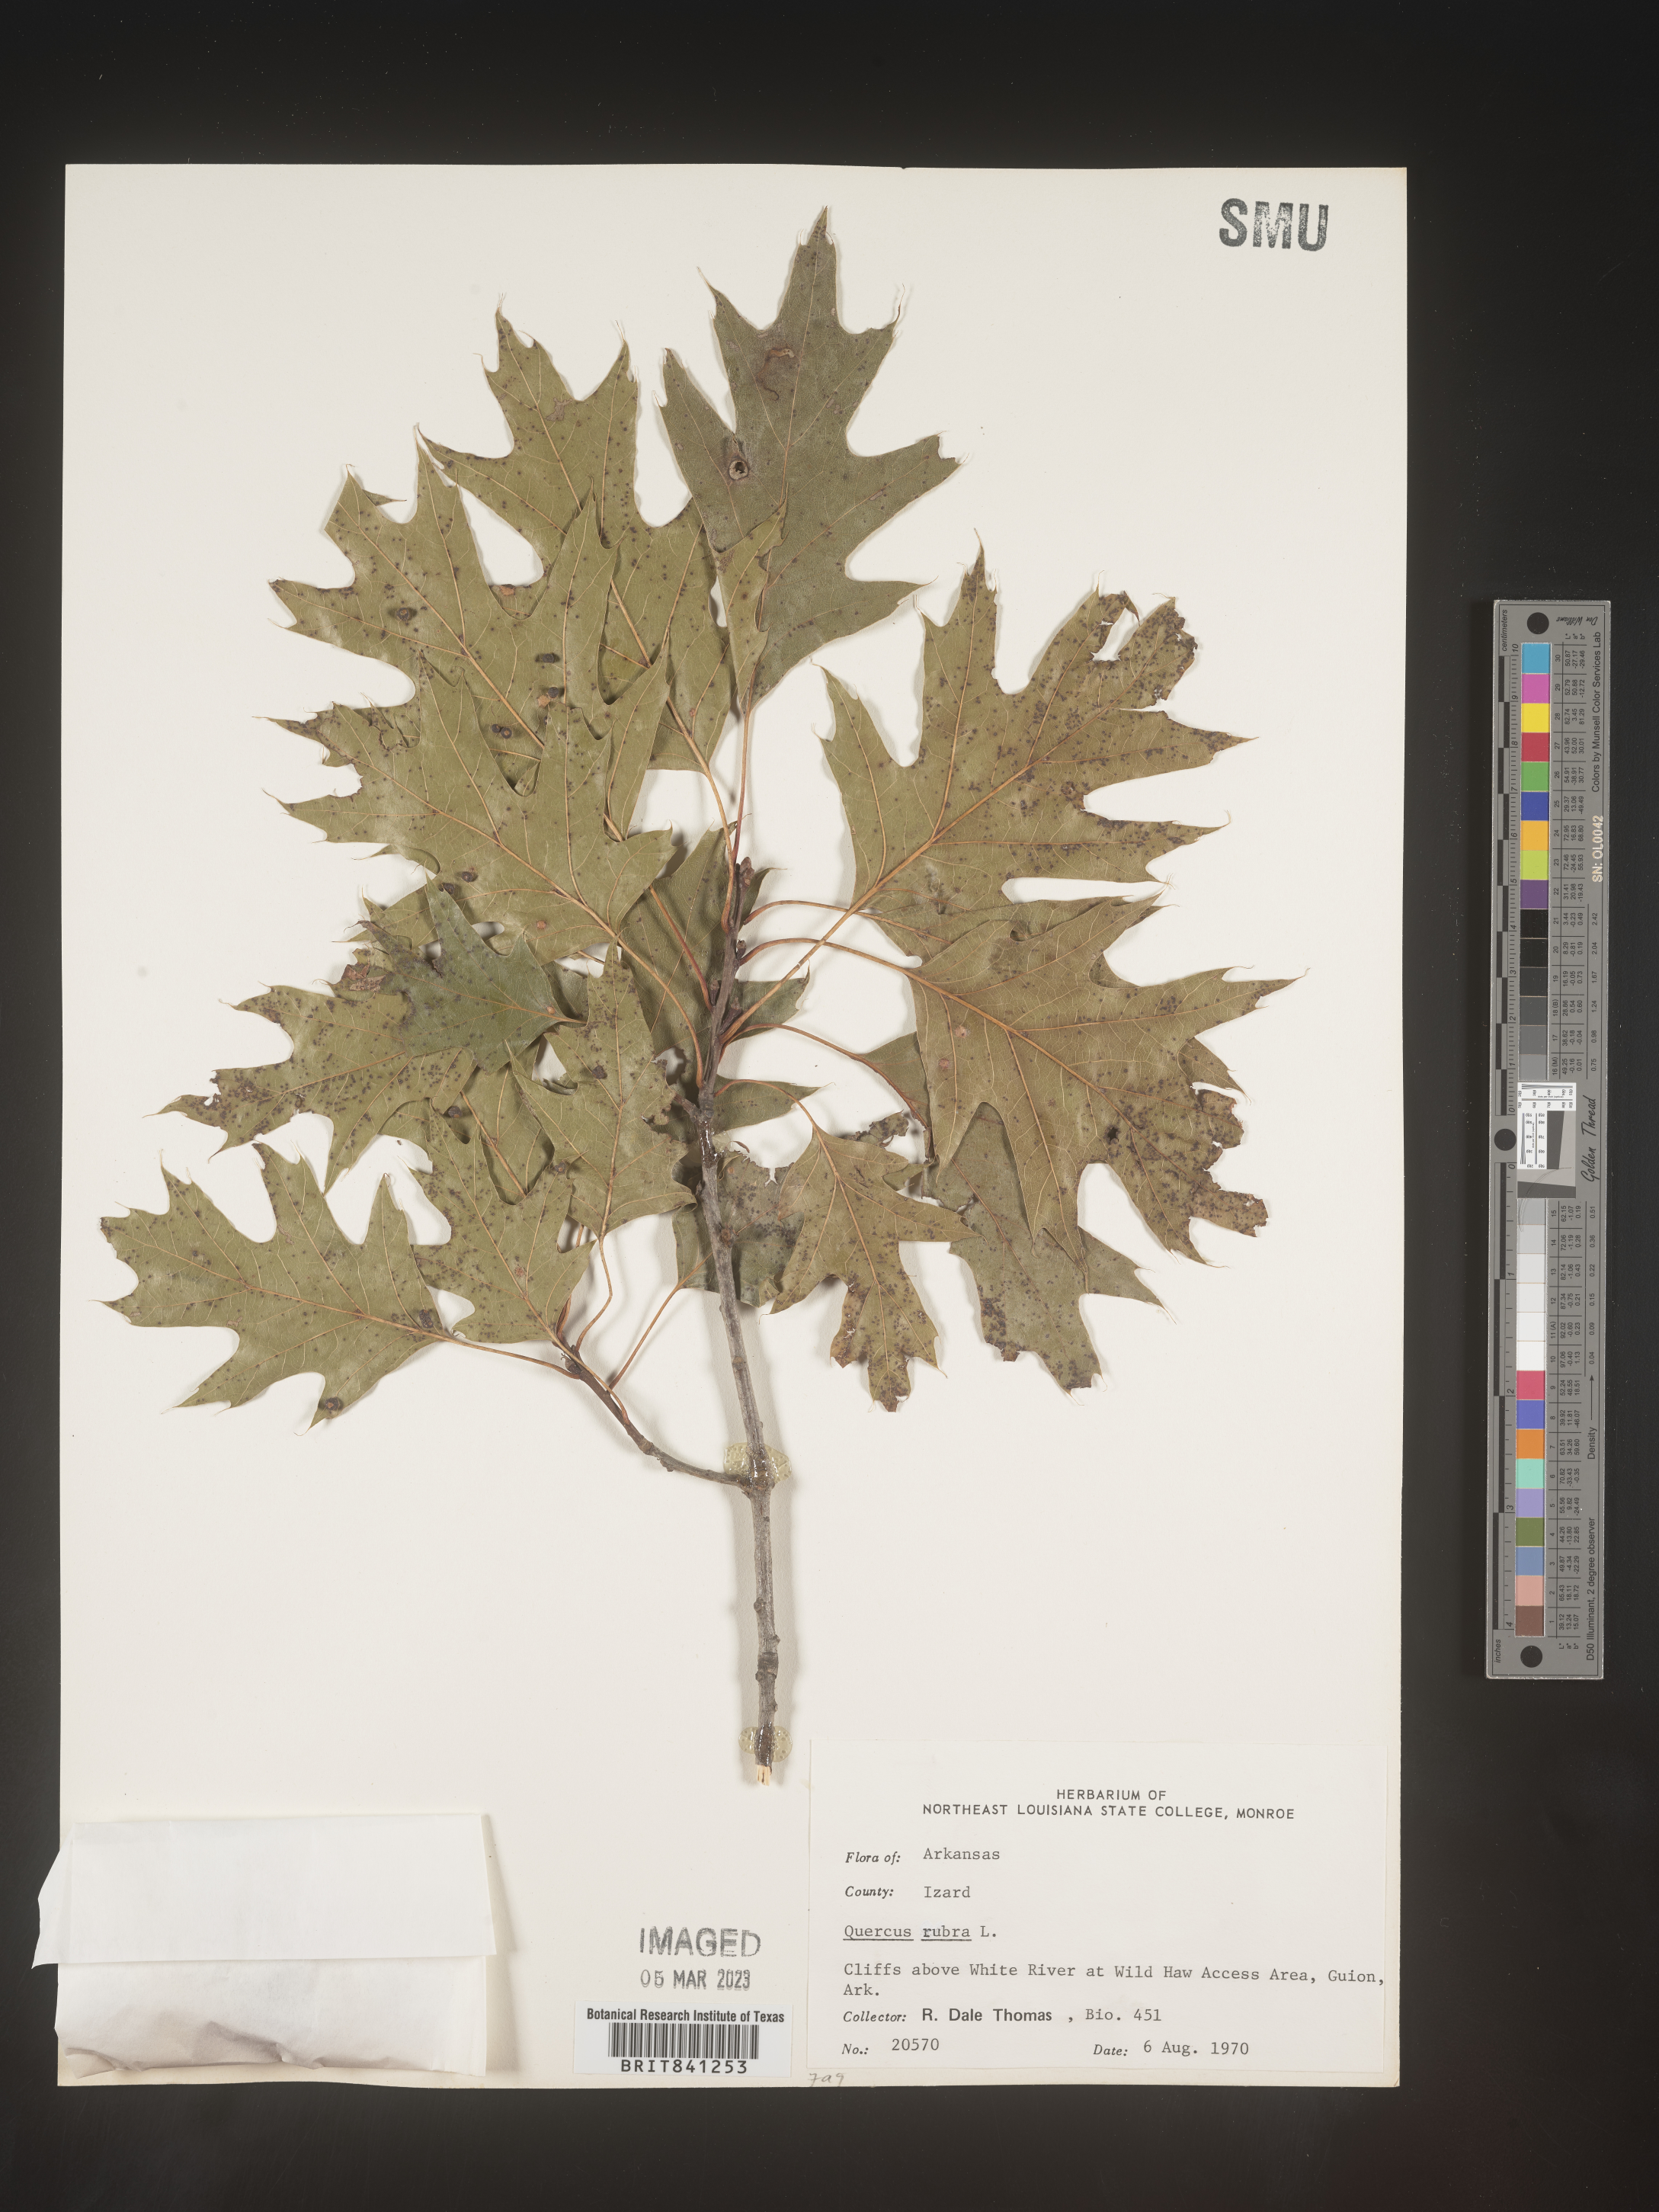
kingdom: Plantae
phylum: Tracheophyta
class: Magnoliopsida
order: Fagales
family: Fagaceae
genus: Quercus
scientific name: Quercus rubra
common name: Red oak
